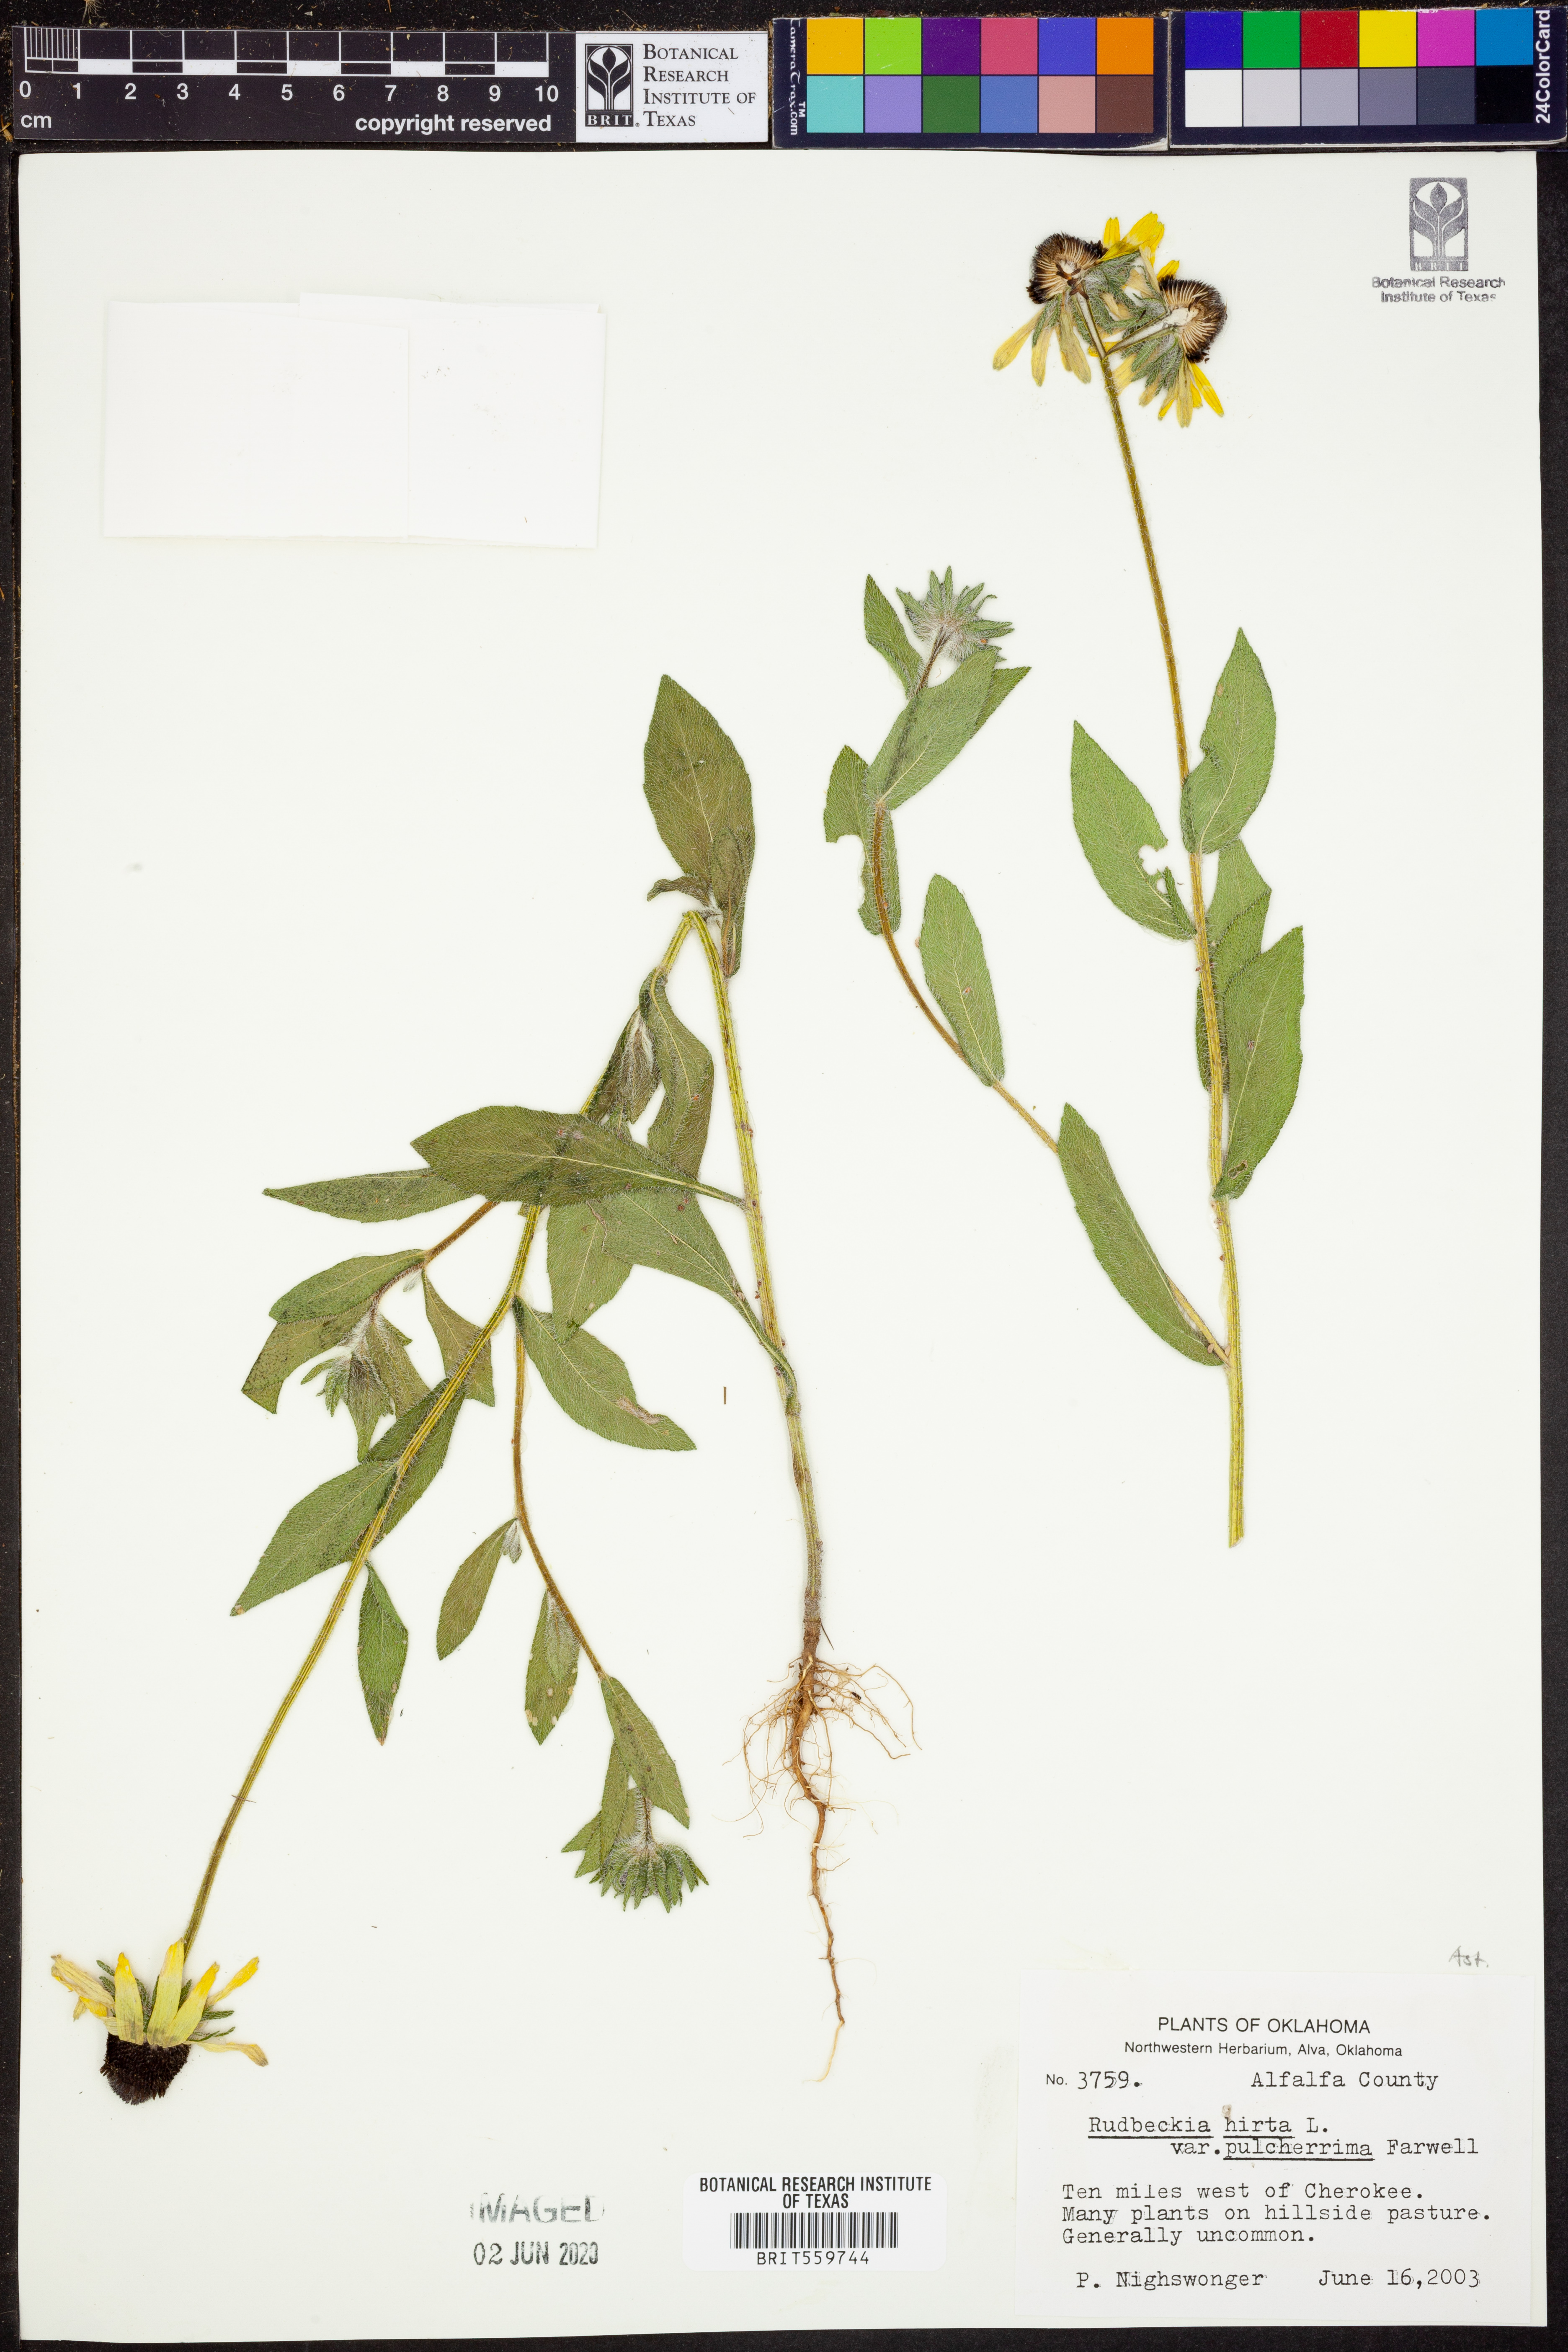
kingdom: Plantae
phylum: Tracheophyta
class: Magnoliopsida
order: Asterales
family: Asteraceae
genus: Rudbeckia
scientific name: Rudbeckia hirta
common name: Black-eyed-susan
